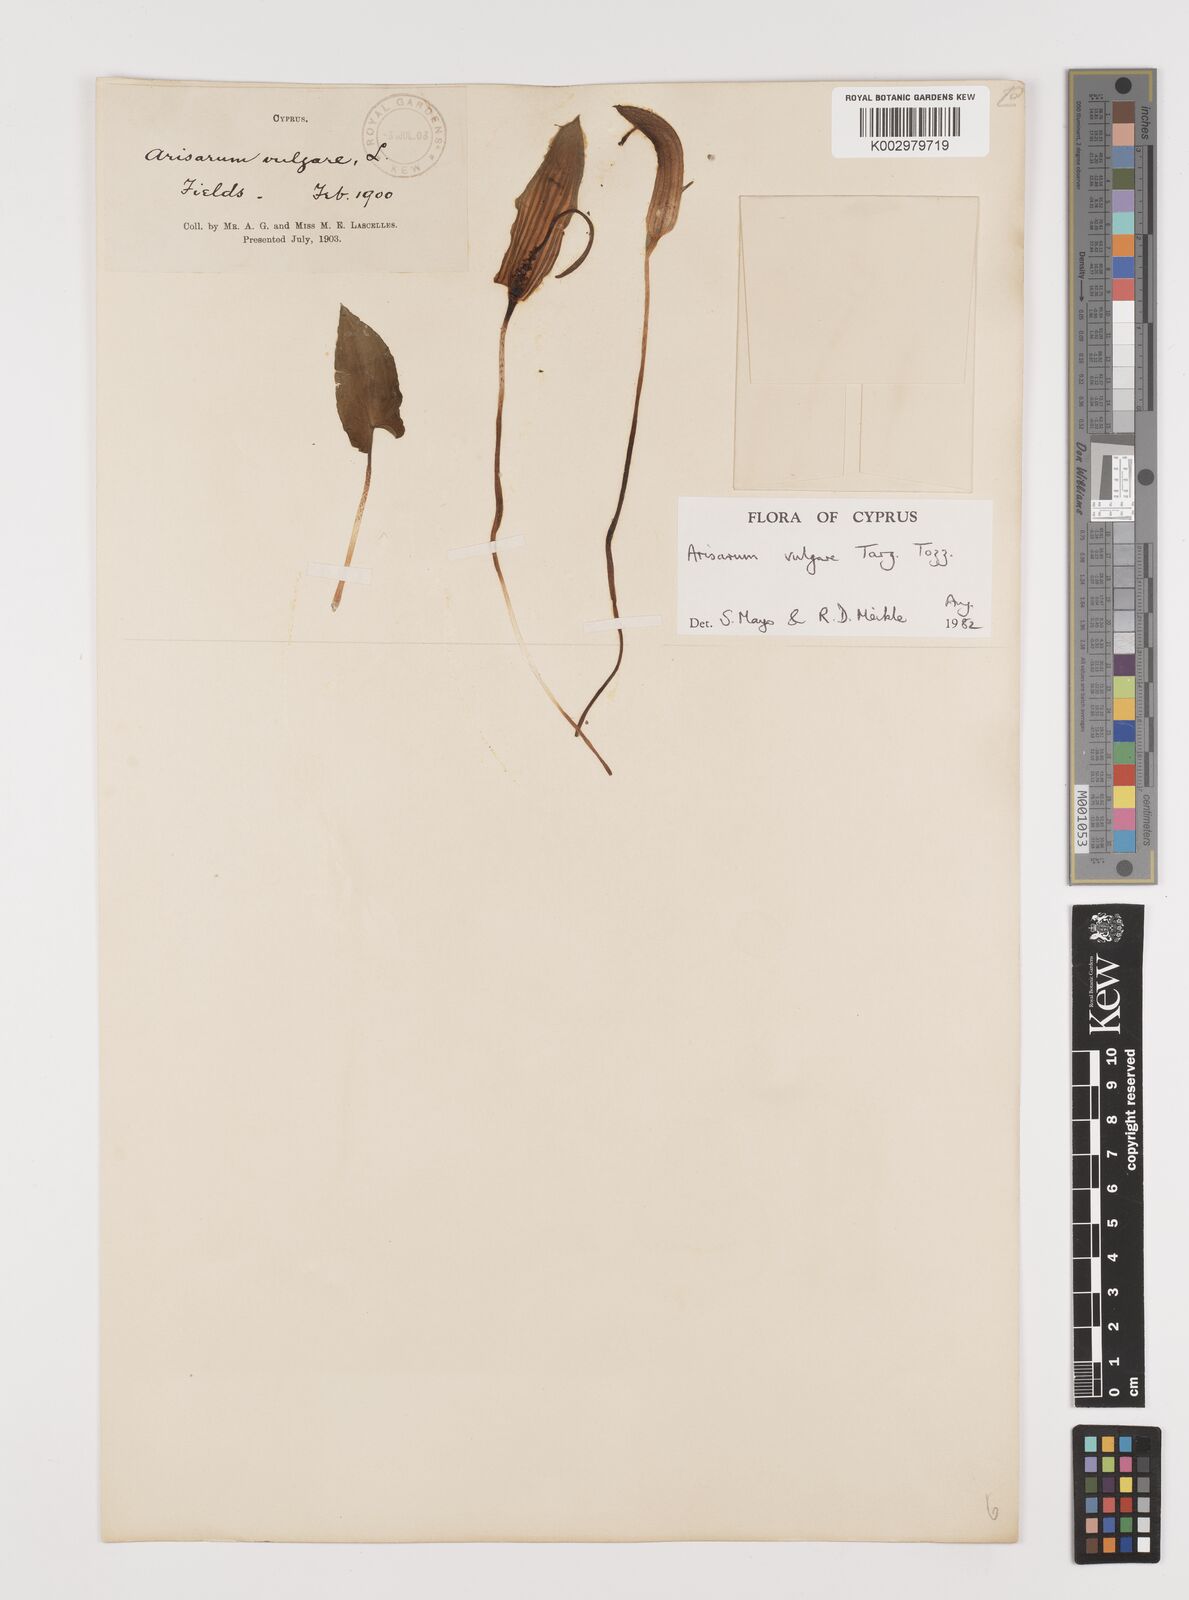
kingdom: Plantae
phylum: Tracheophyta
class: Liliopsida
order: Alismatales
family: Araceae
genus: Arisarum
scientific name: Arisarum vulgare
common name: Common arisarum
